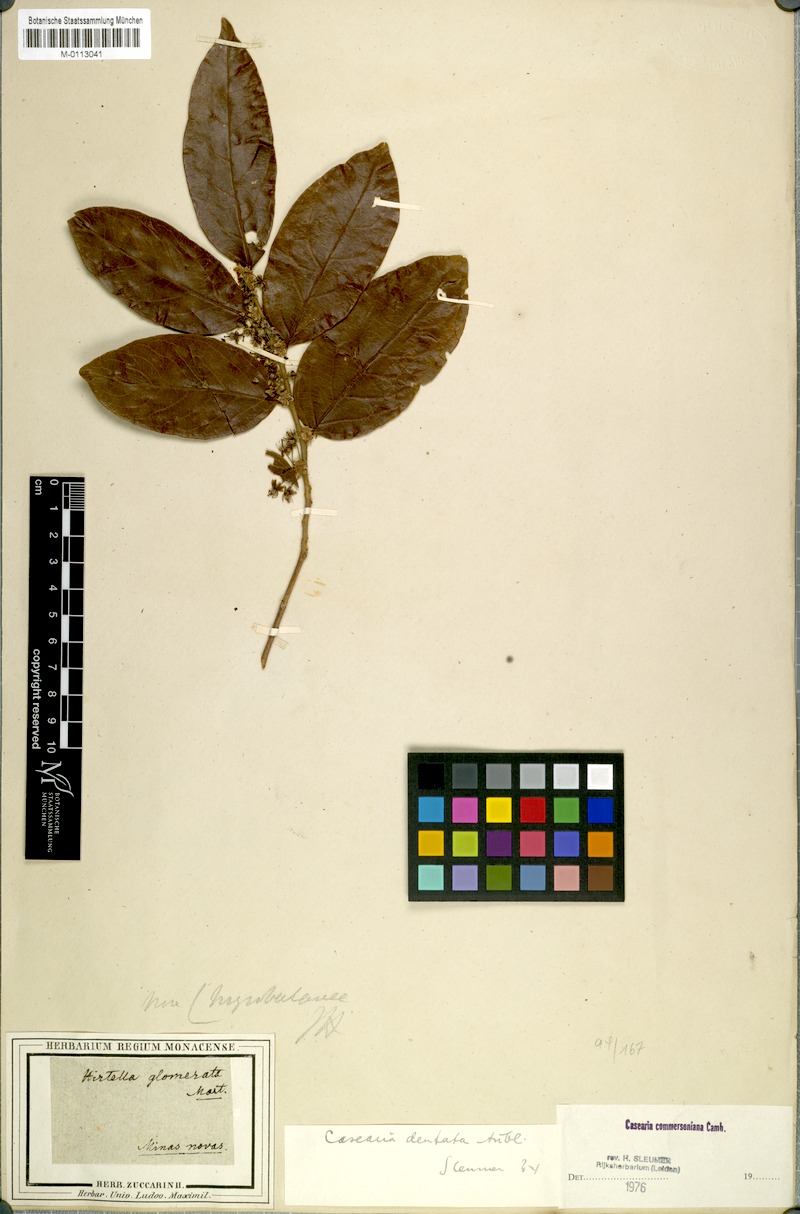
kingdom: Plantae
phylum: Tracheophyta
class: Magnoliopsida
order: Malpighiales
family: Salicaceae
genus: Piparea
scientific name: Piparea dentata
